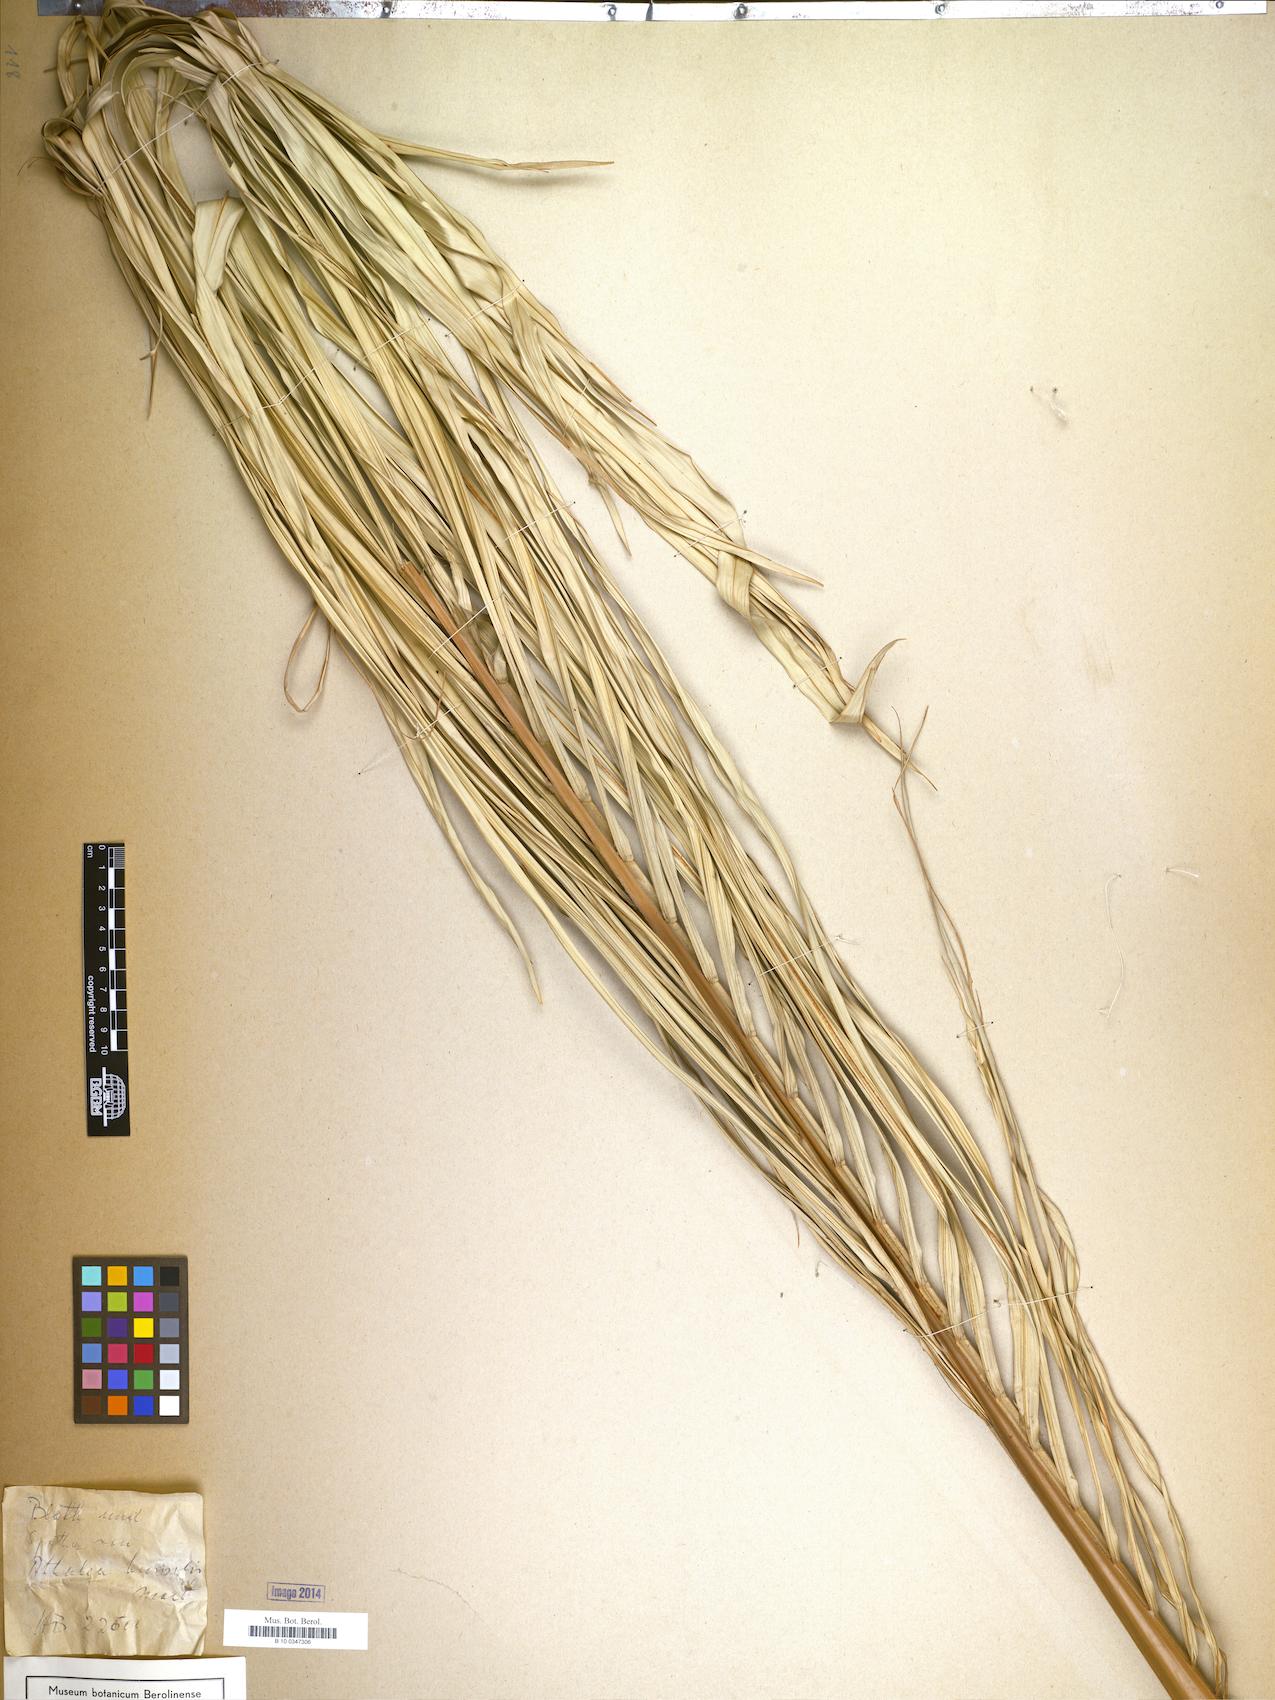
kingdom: Plantae
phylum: Tracheophyta
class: Liliopsida
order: Arecales
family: Arecaceae
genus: Attalea
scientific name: Attalea humilis
